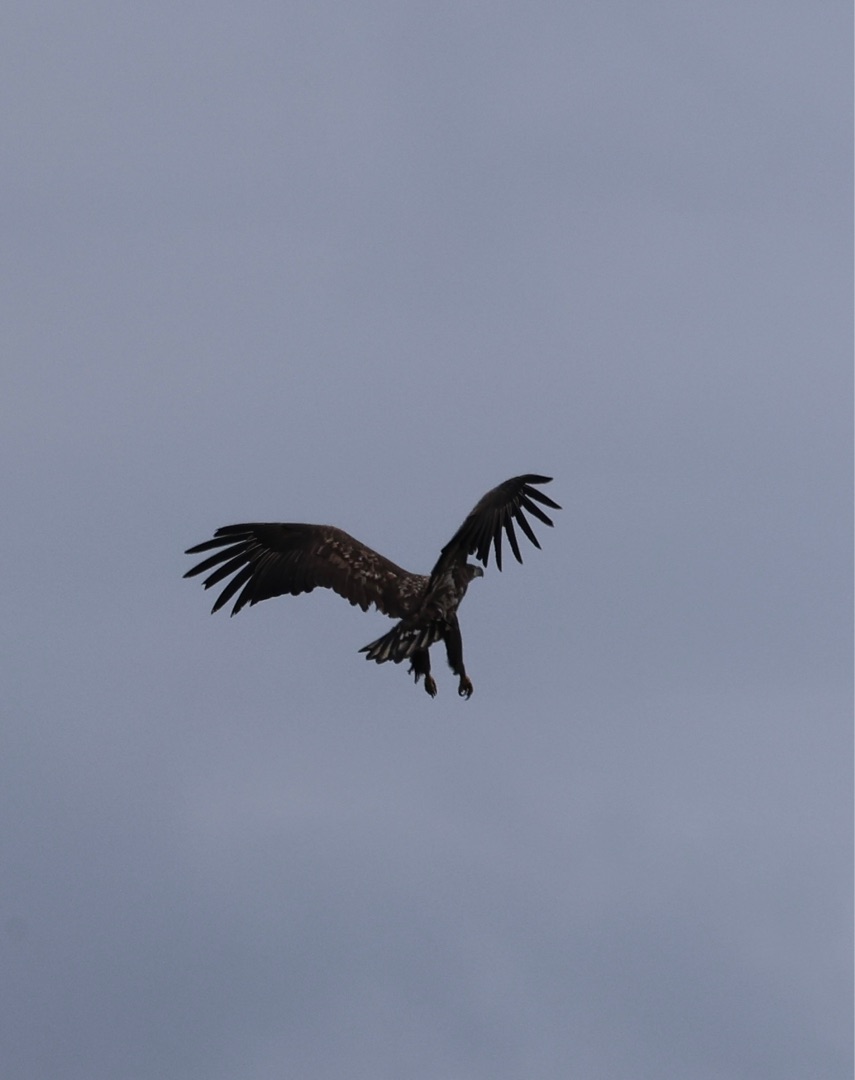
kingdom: Animalia
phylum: Chordata
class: Aves
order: Accipitriformes
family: Accipitridae
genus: Haliaeetus
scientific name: Haliaeetus albicilla
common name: Havørn
